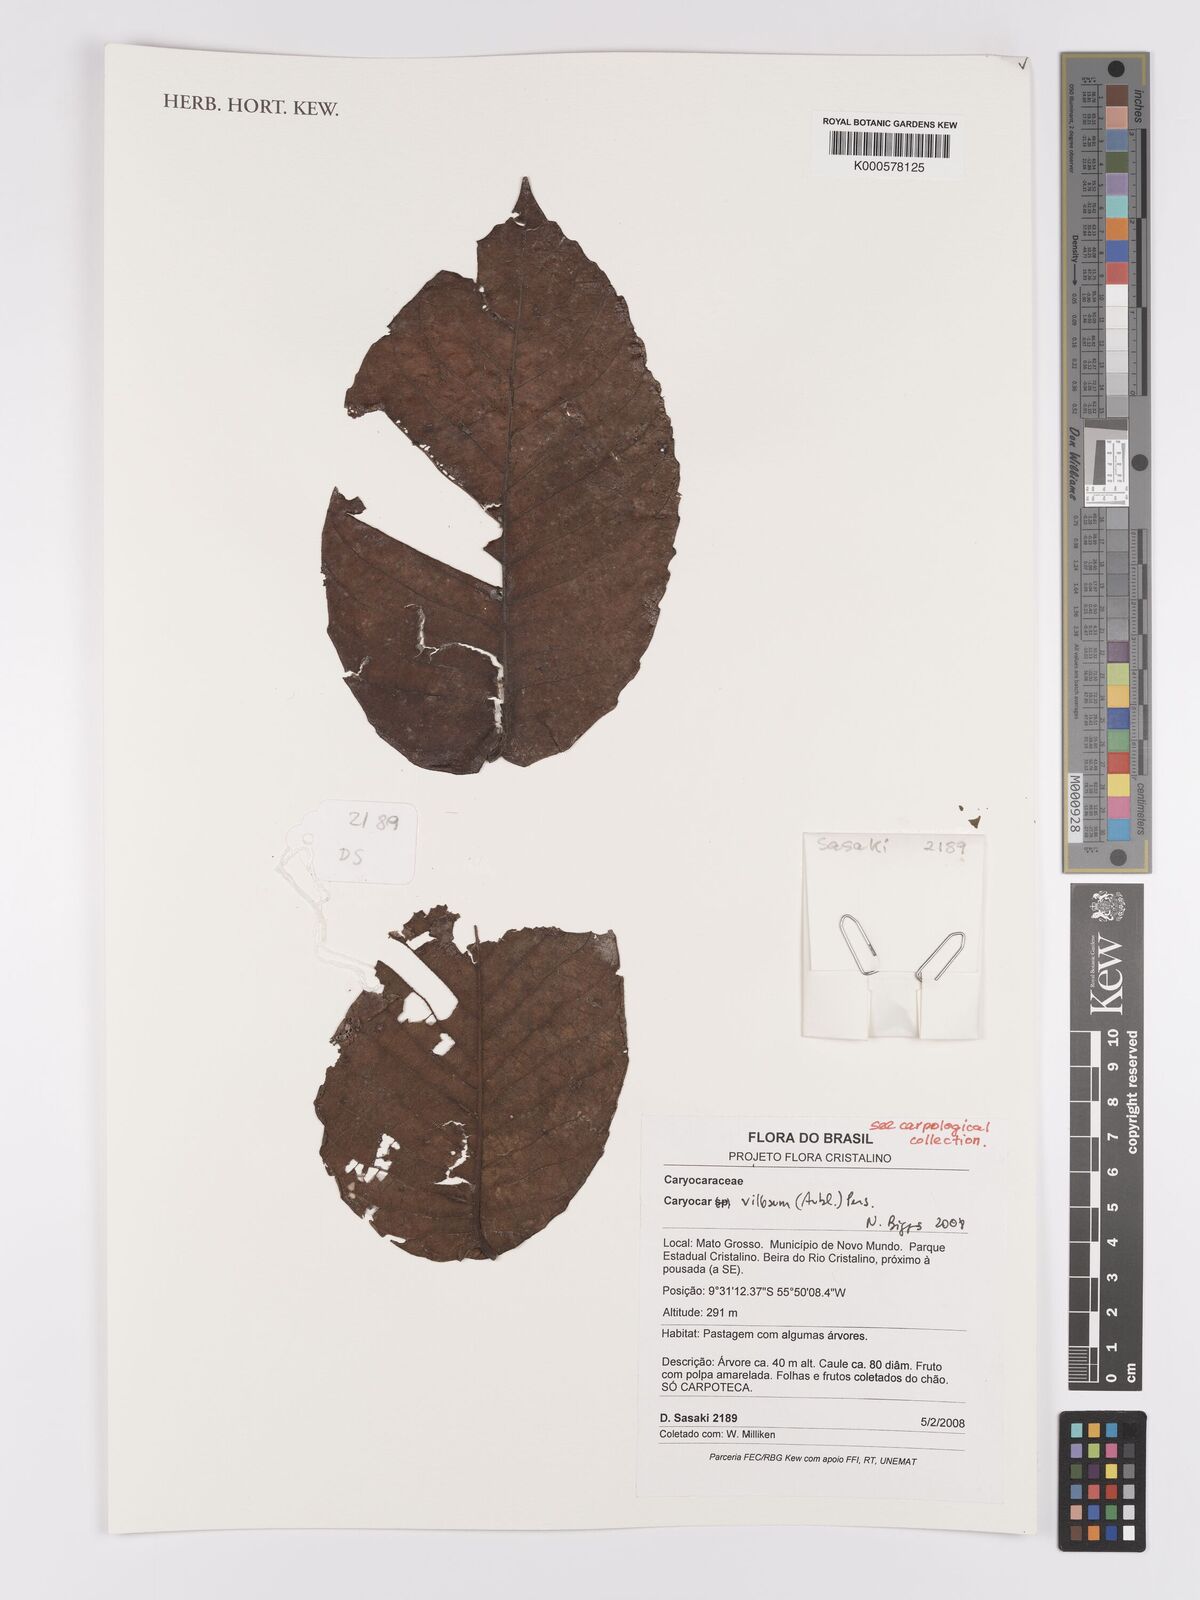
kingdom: Plantae
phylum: Tracheophyta
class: Magnoliopsida
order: Malpighiales
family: Caryocaraceae
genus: Caryocar
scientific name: Caryocar villosum
